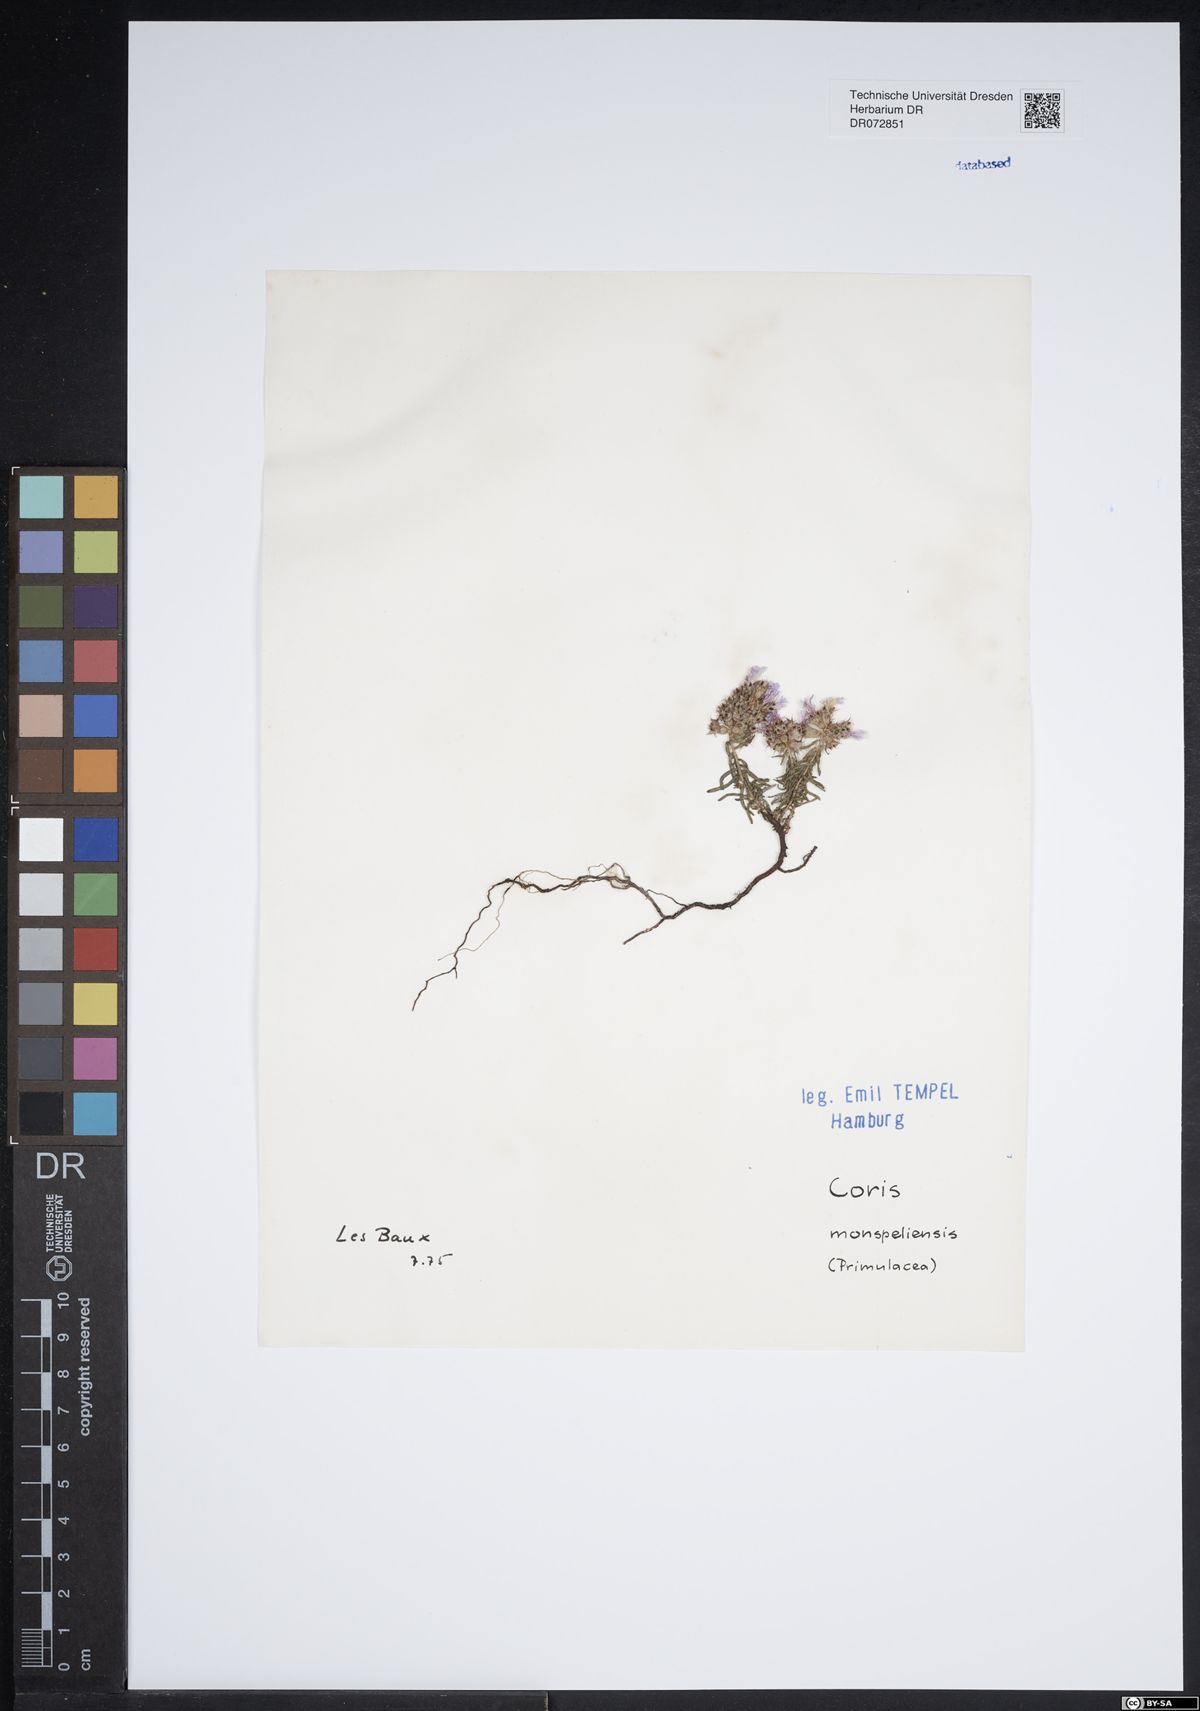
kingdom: Plantae
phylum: Tracheophyta
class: Magnoliopsida
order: Ericales
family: Primulaceae
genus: Coris
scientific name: Coris monspeliensis
